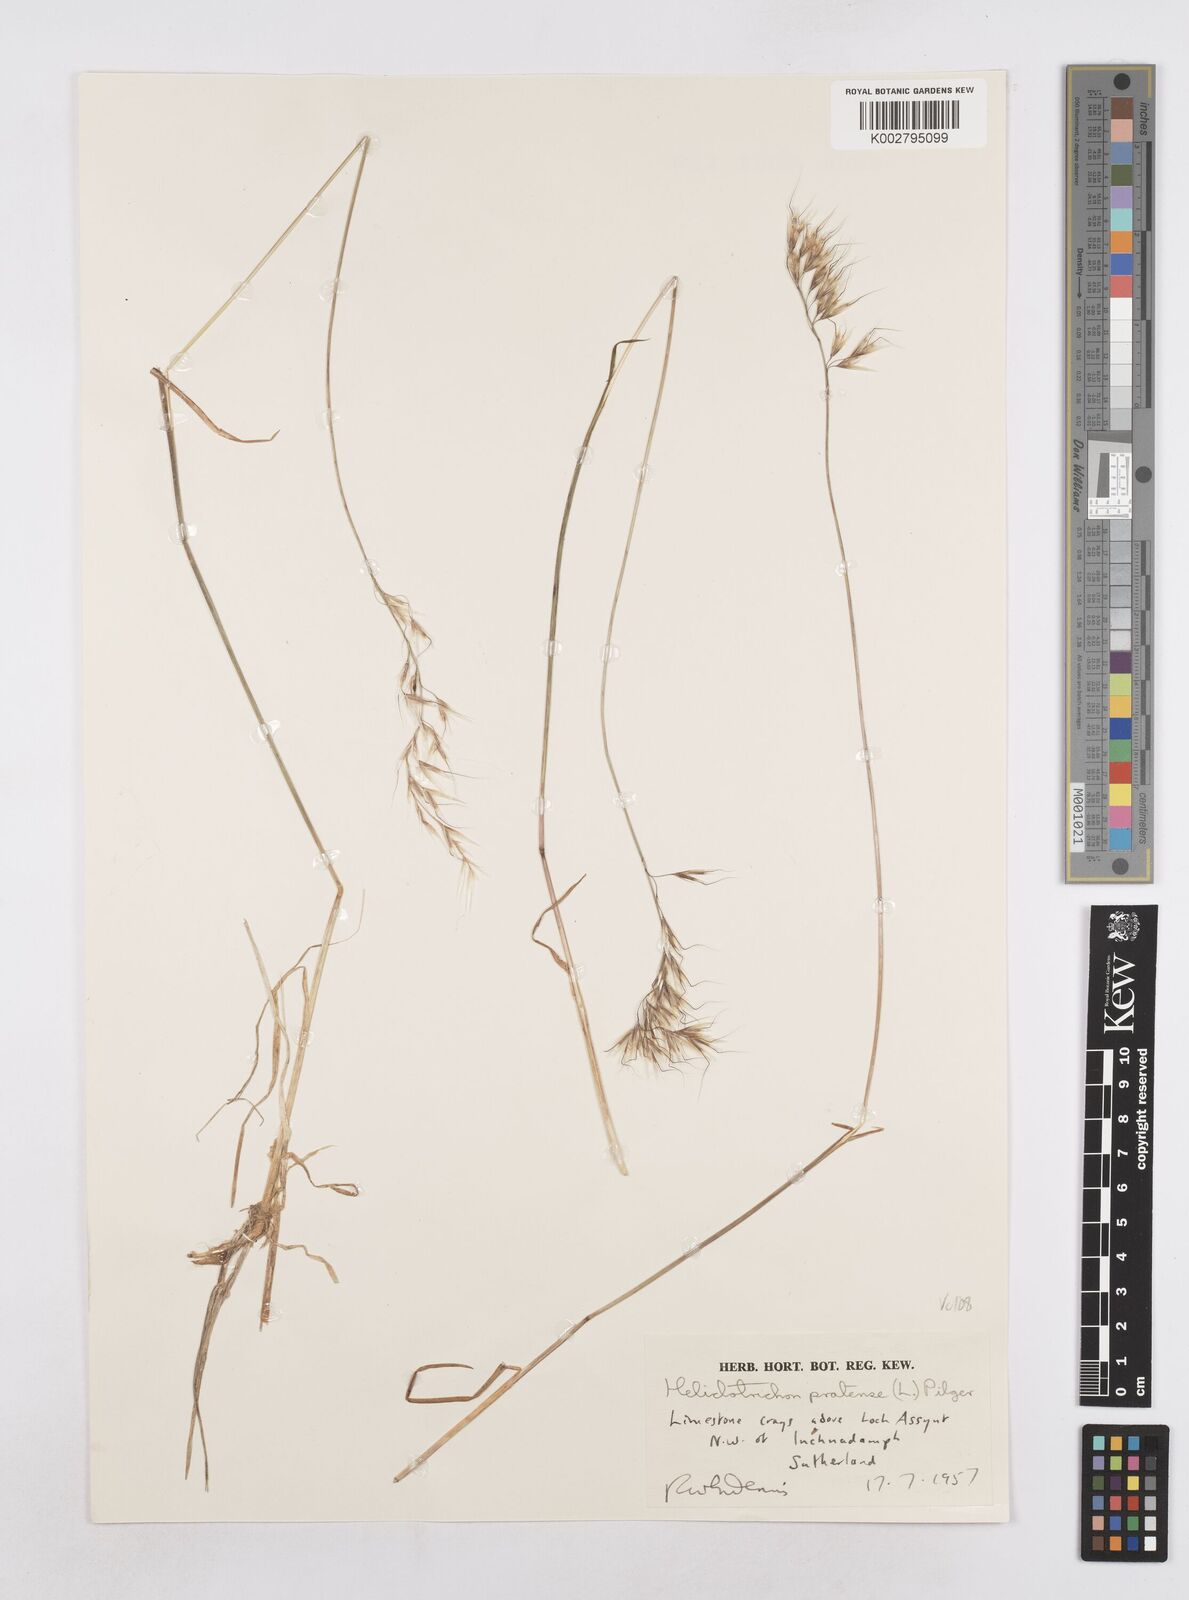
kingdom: Plantae
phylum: Tracheophyta
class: Liliopsida
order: Poales
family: Poaceae
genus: Helictotrichon
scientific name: Helictotrichon
